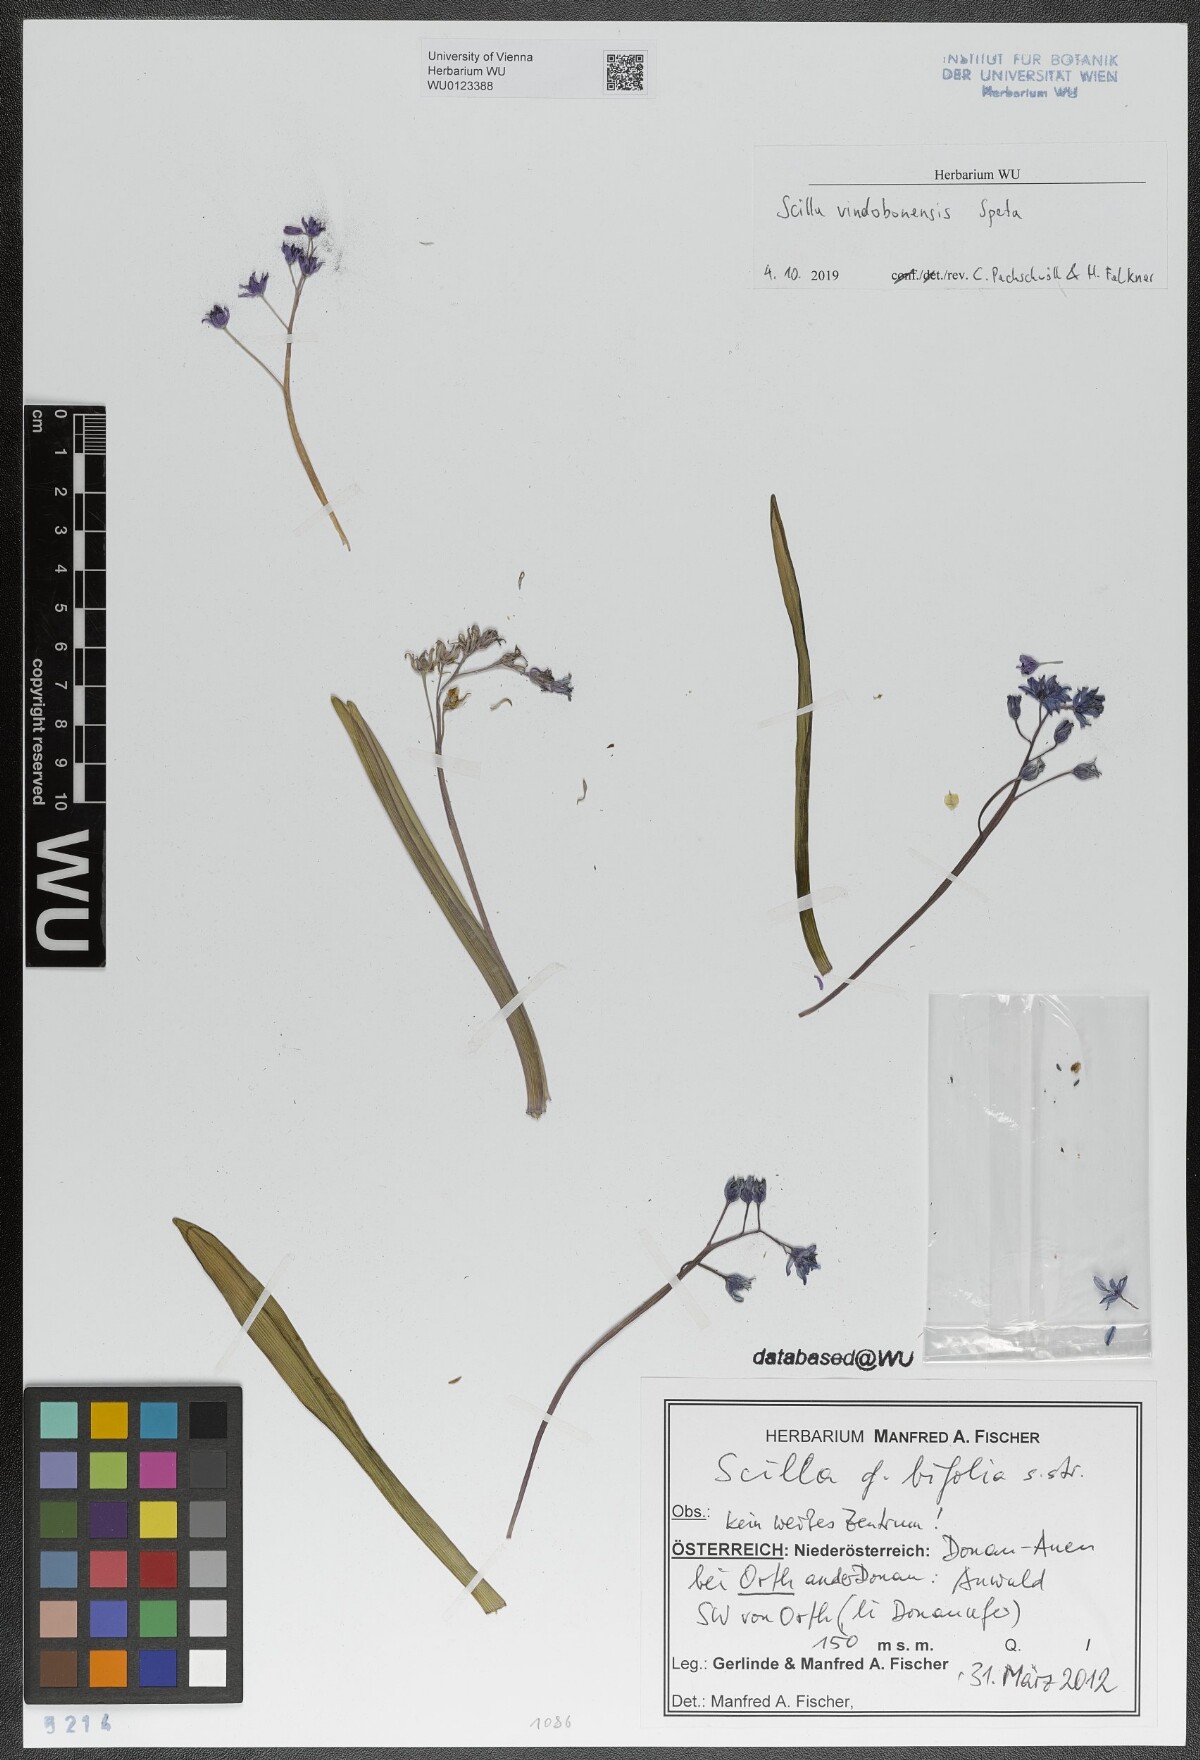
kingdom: Plantae
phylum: Tracheophyta
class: Liliopsida
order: Asparagales
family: Asparagaceae
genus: Scilla
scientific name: Scilla vindobonensis
